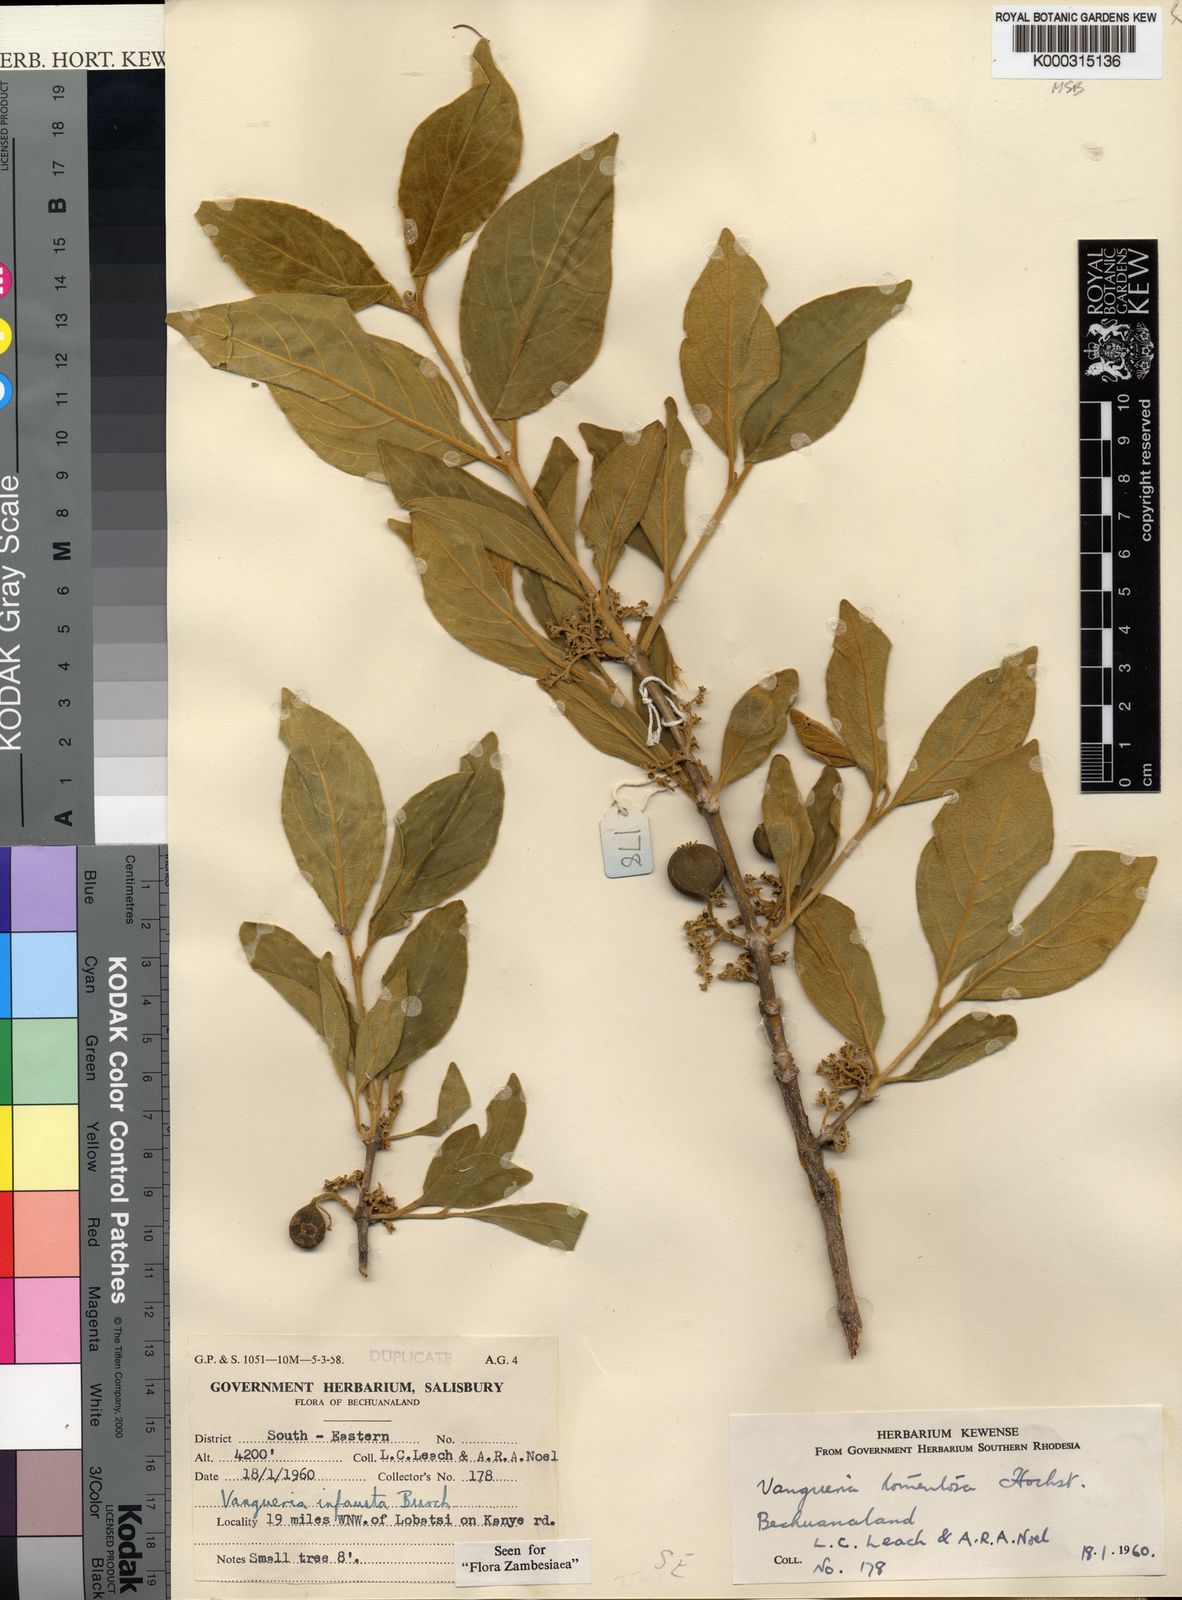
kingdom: Plantae
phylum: Tracheophyta
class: Magnoliopsida
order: Gentianales
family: Rubiaceae
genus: Vangueria
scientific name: Vangueria infausta
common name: Medlar
